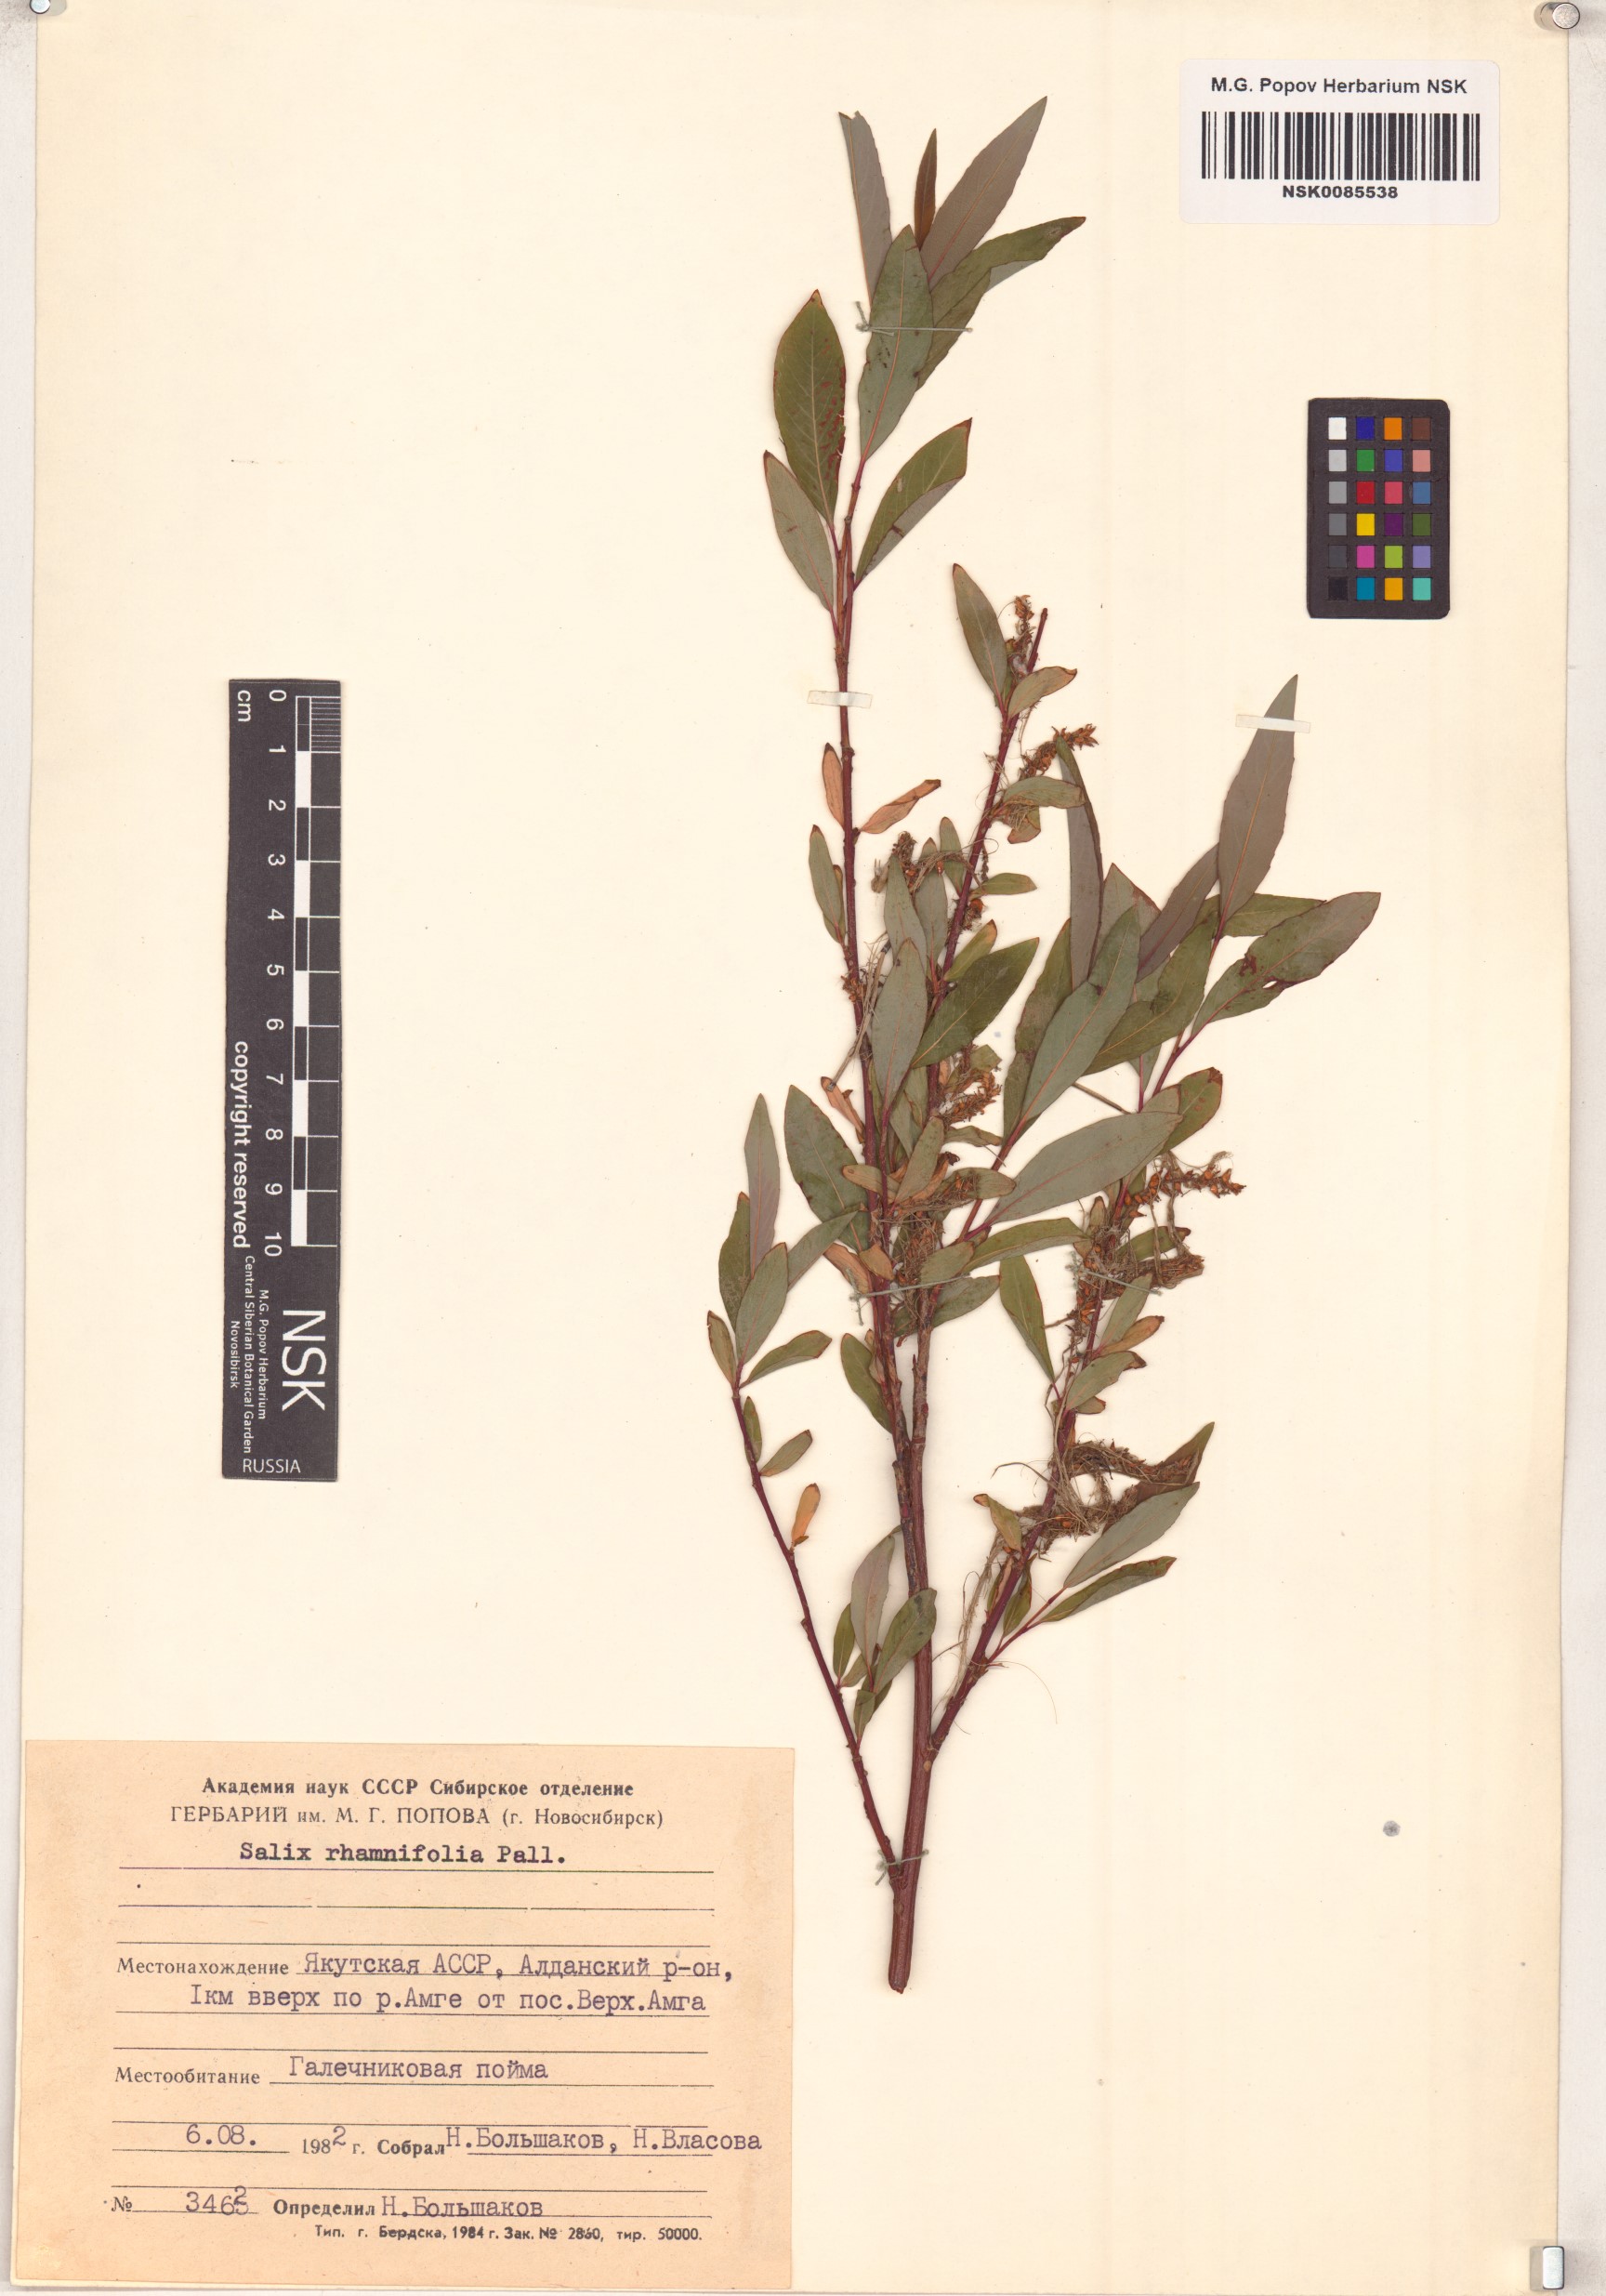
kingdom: Plantae
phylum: Tracheophyta
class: Magnoliopsida
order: Malpighiales
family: Salicaceae
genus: Salix
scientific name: Salix rhamnifolia
